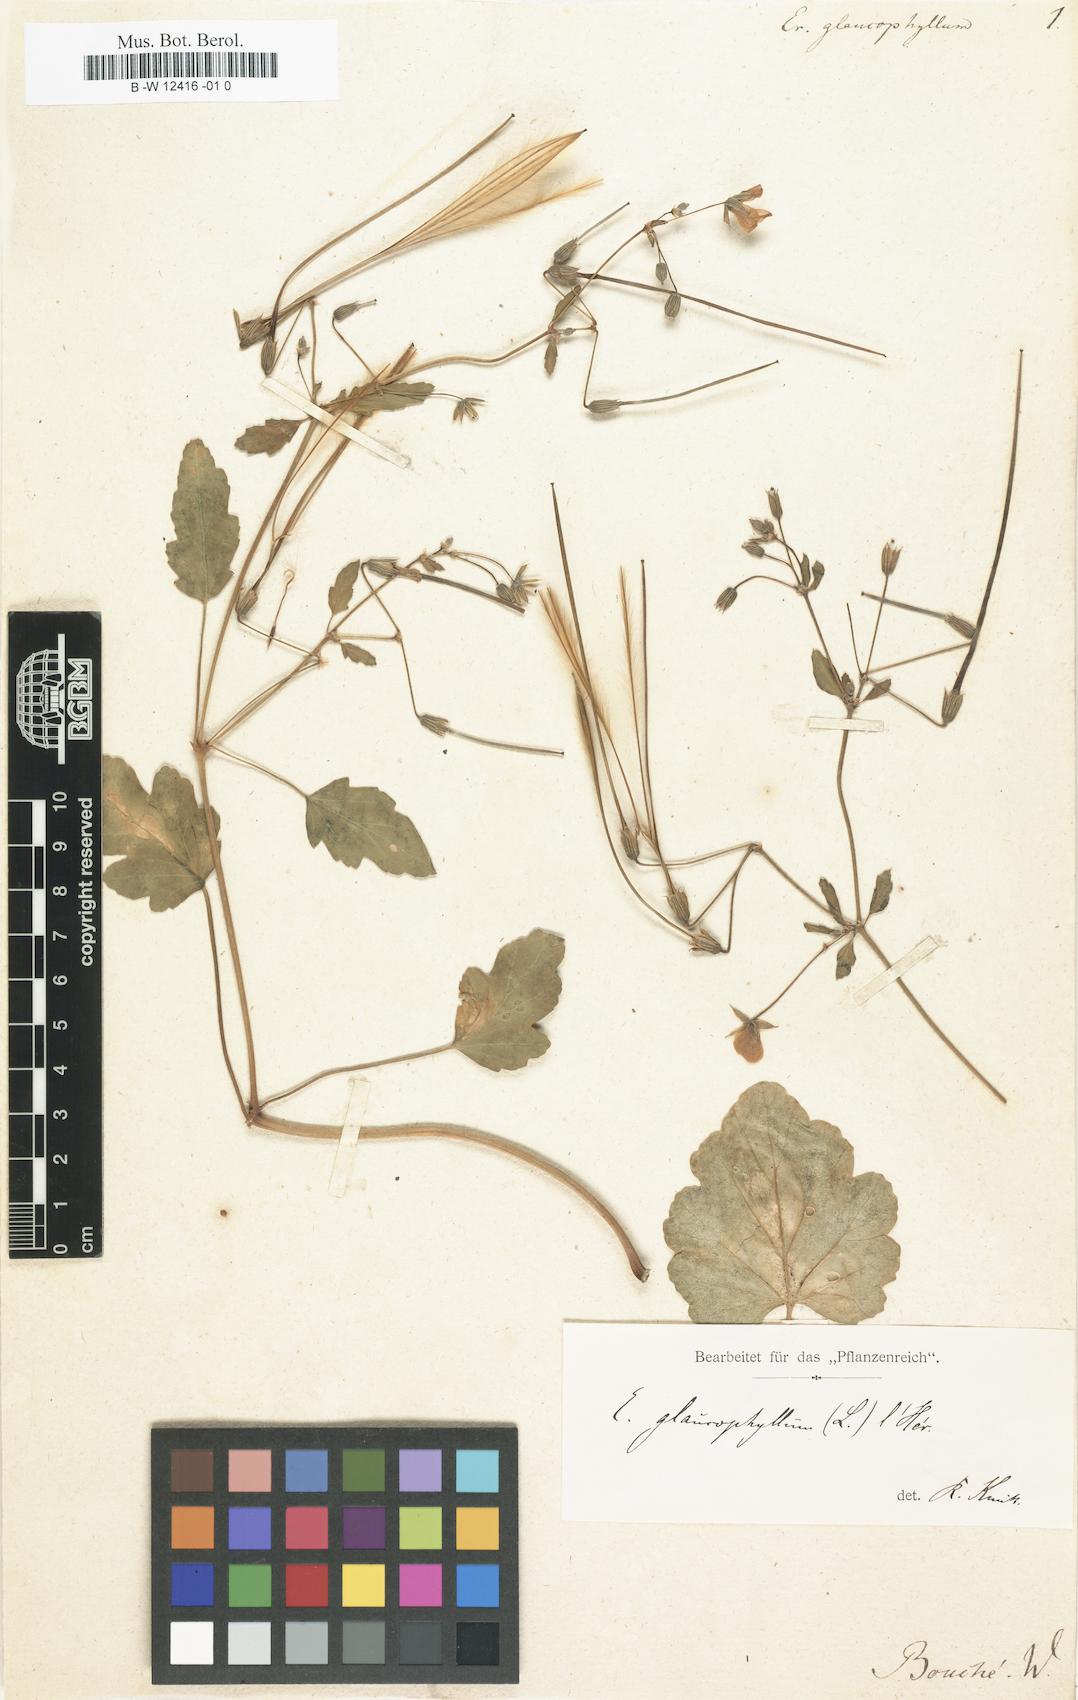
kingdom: Plantae
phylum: Tracheophyta
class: Magnoliopsida
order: Geraniales
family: Geraniaceae
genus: Erodium
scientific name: Erodium glaucophyllum
